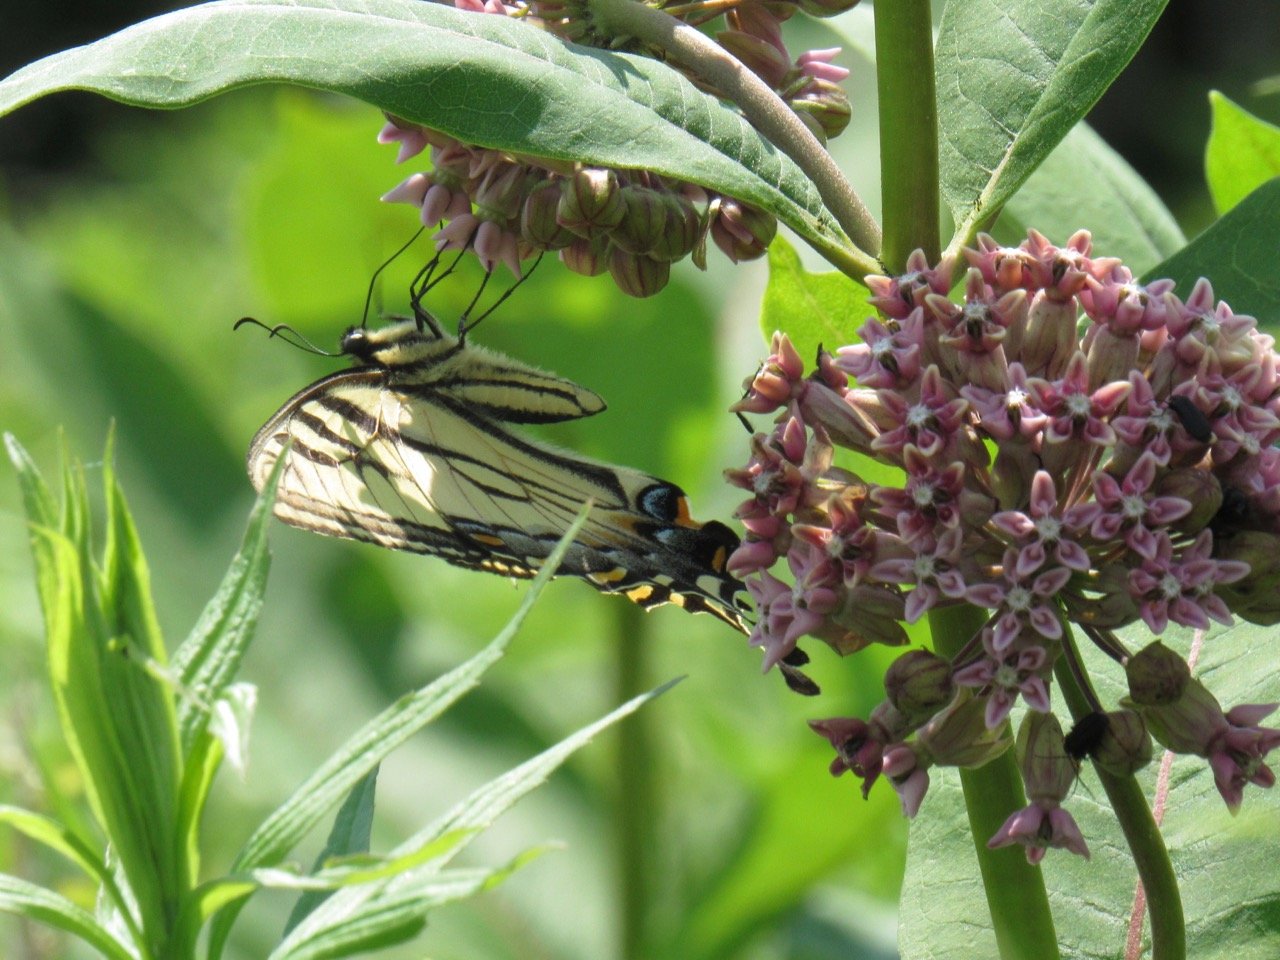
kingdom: Animalia
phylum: Arthropoda
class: Insecta
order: Lepidoptera
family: Papilionidae
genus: Pterourus
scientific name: Pterourus
